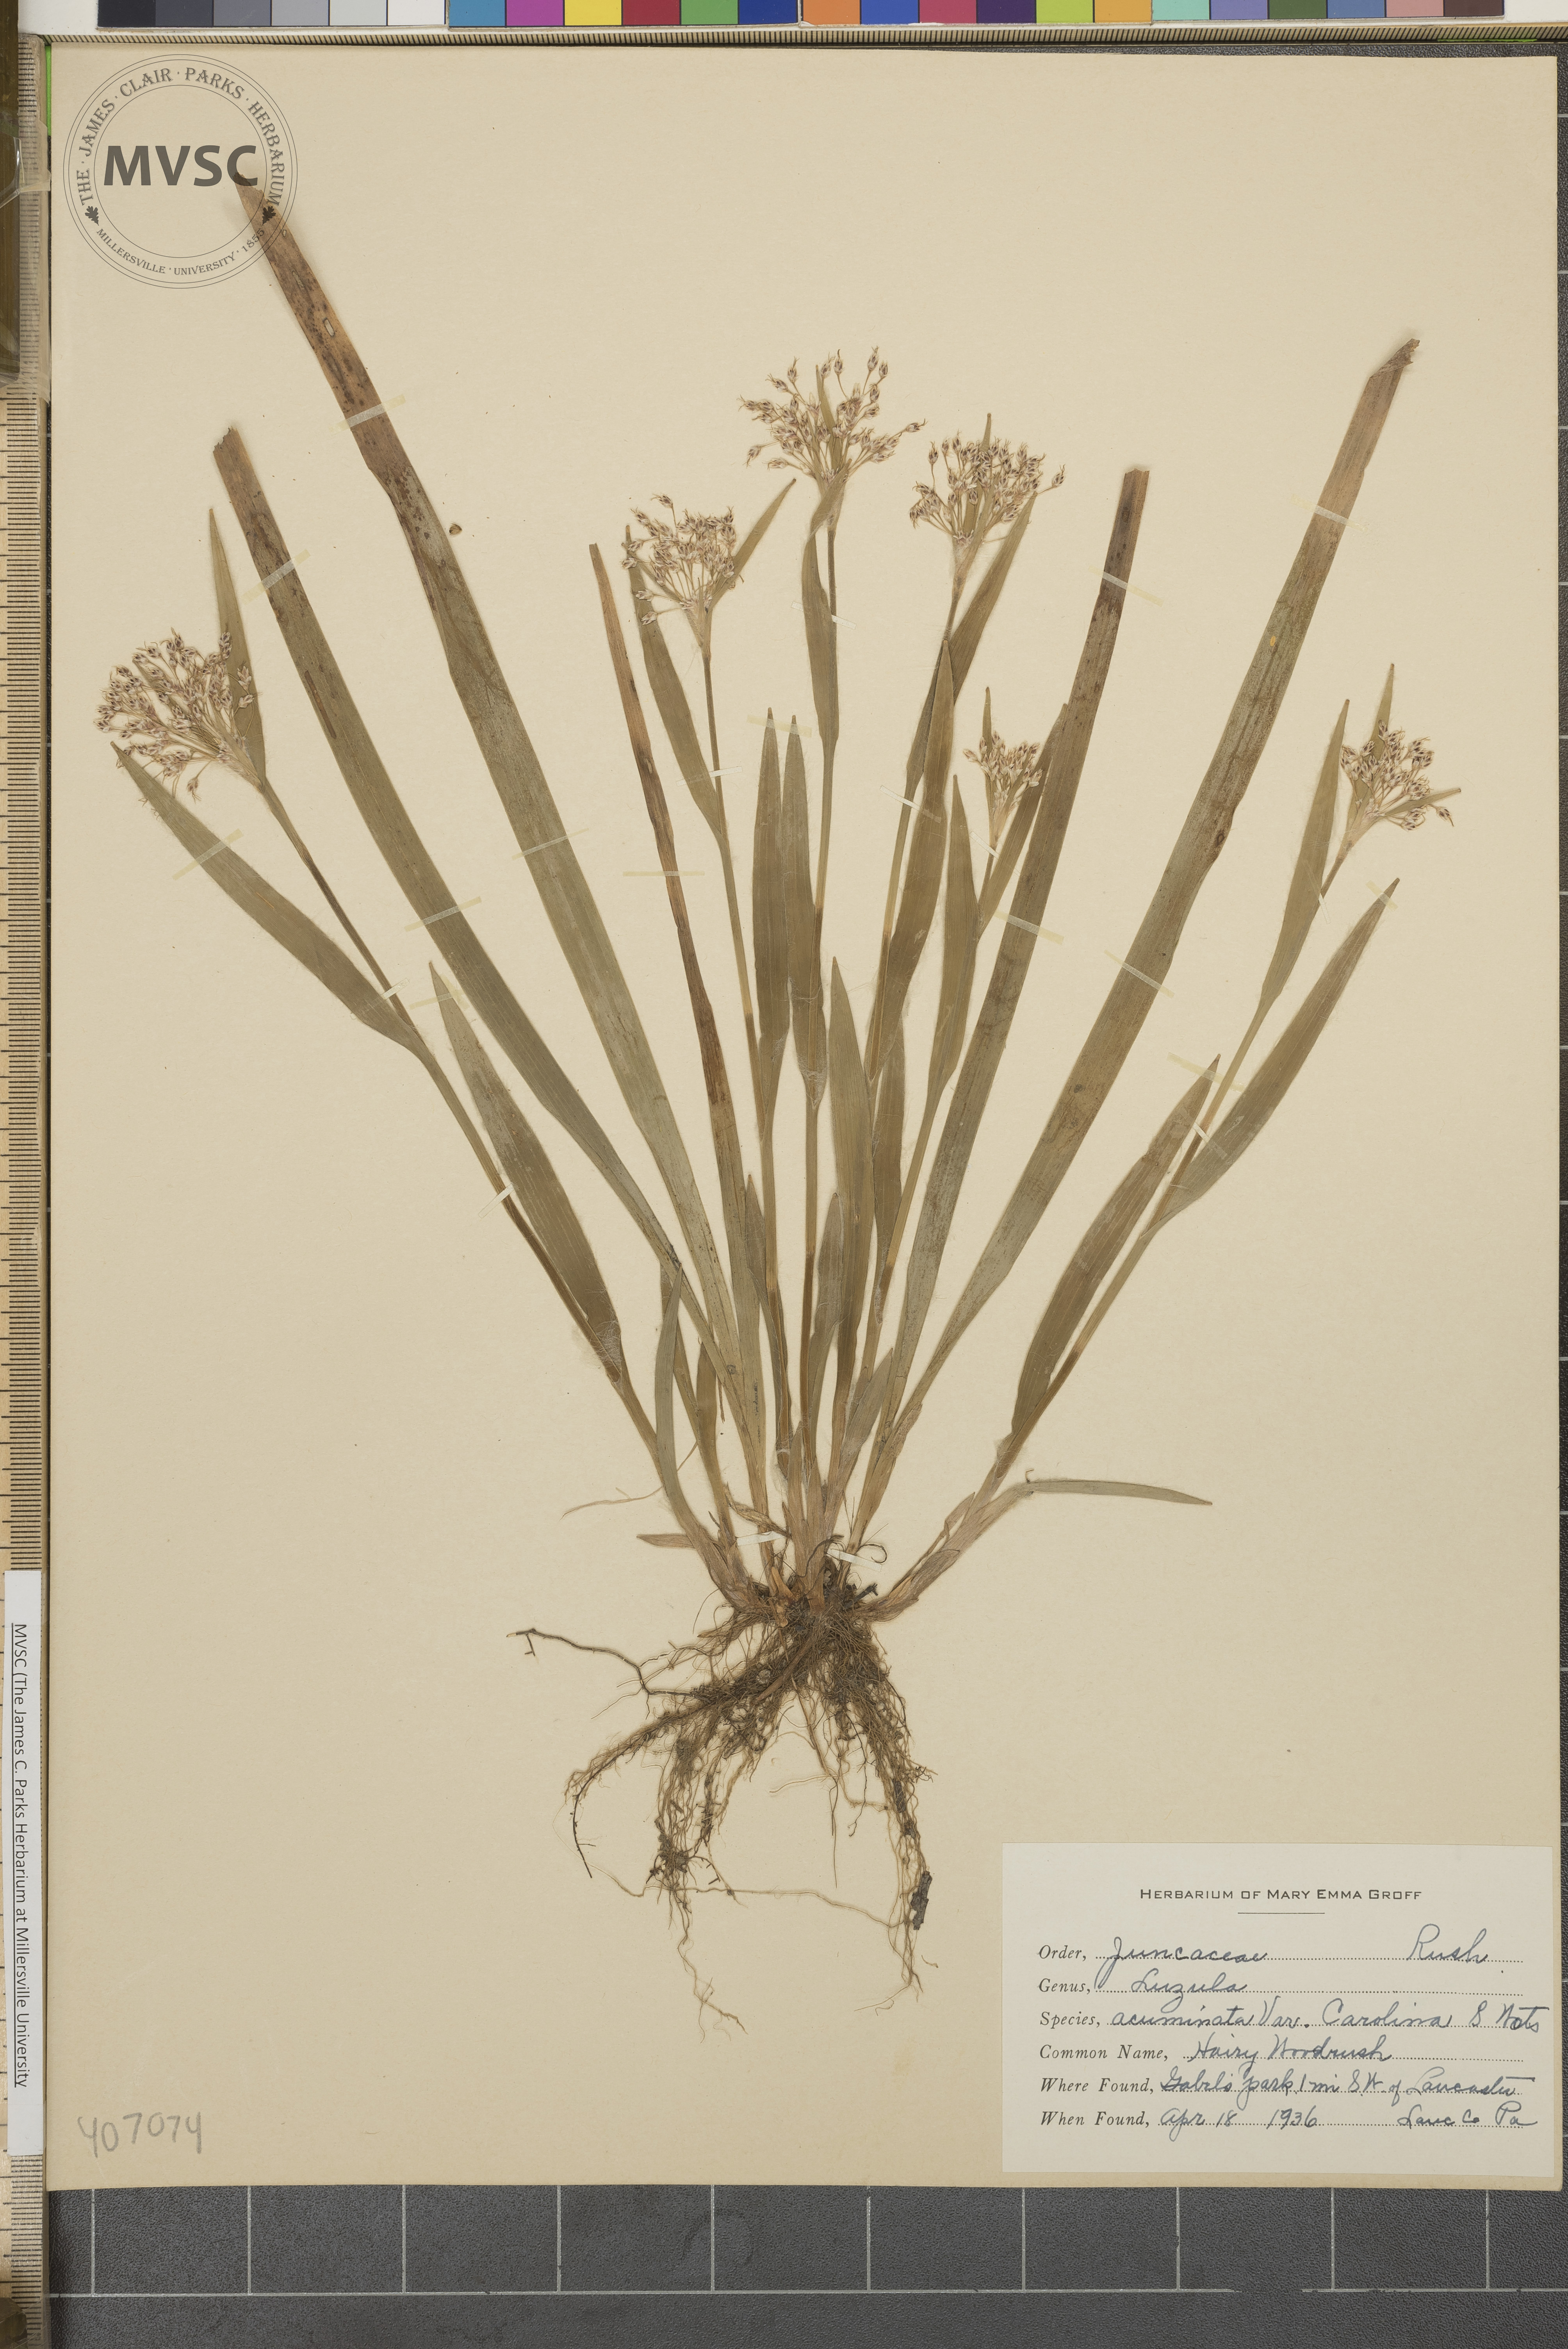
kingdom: Plantae
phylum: Tracheophyta
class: Liliopsida
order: Poales
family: Juncaceae
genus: Luzula
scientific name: Luzula acuminata
